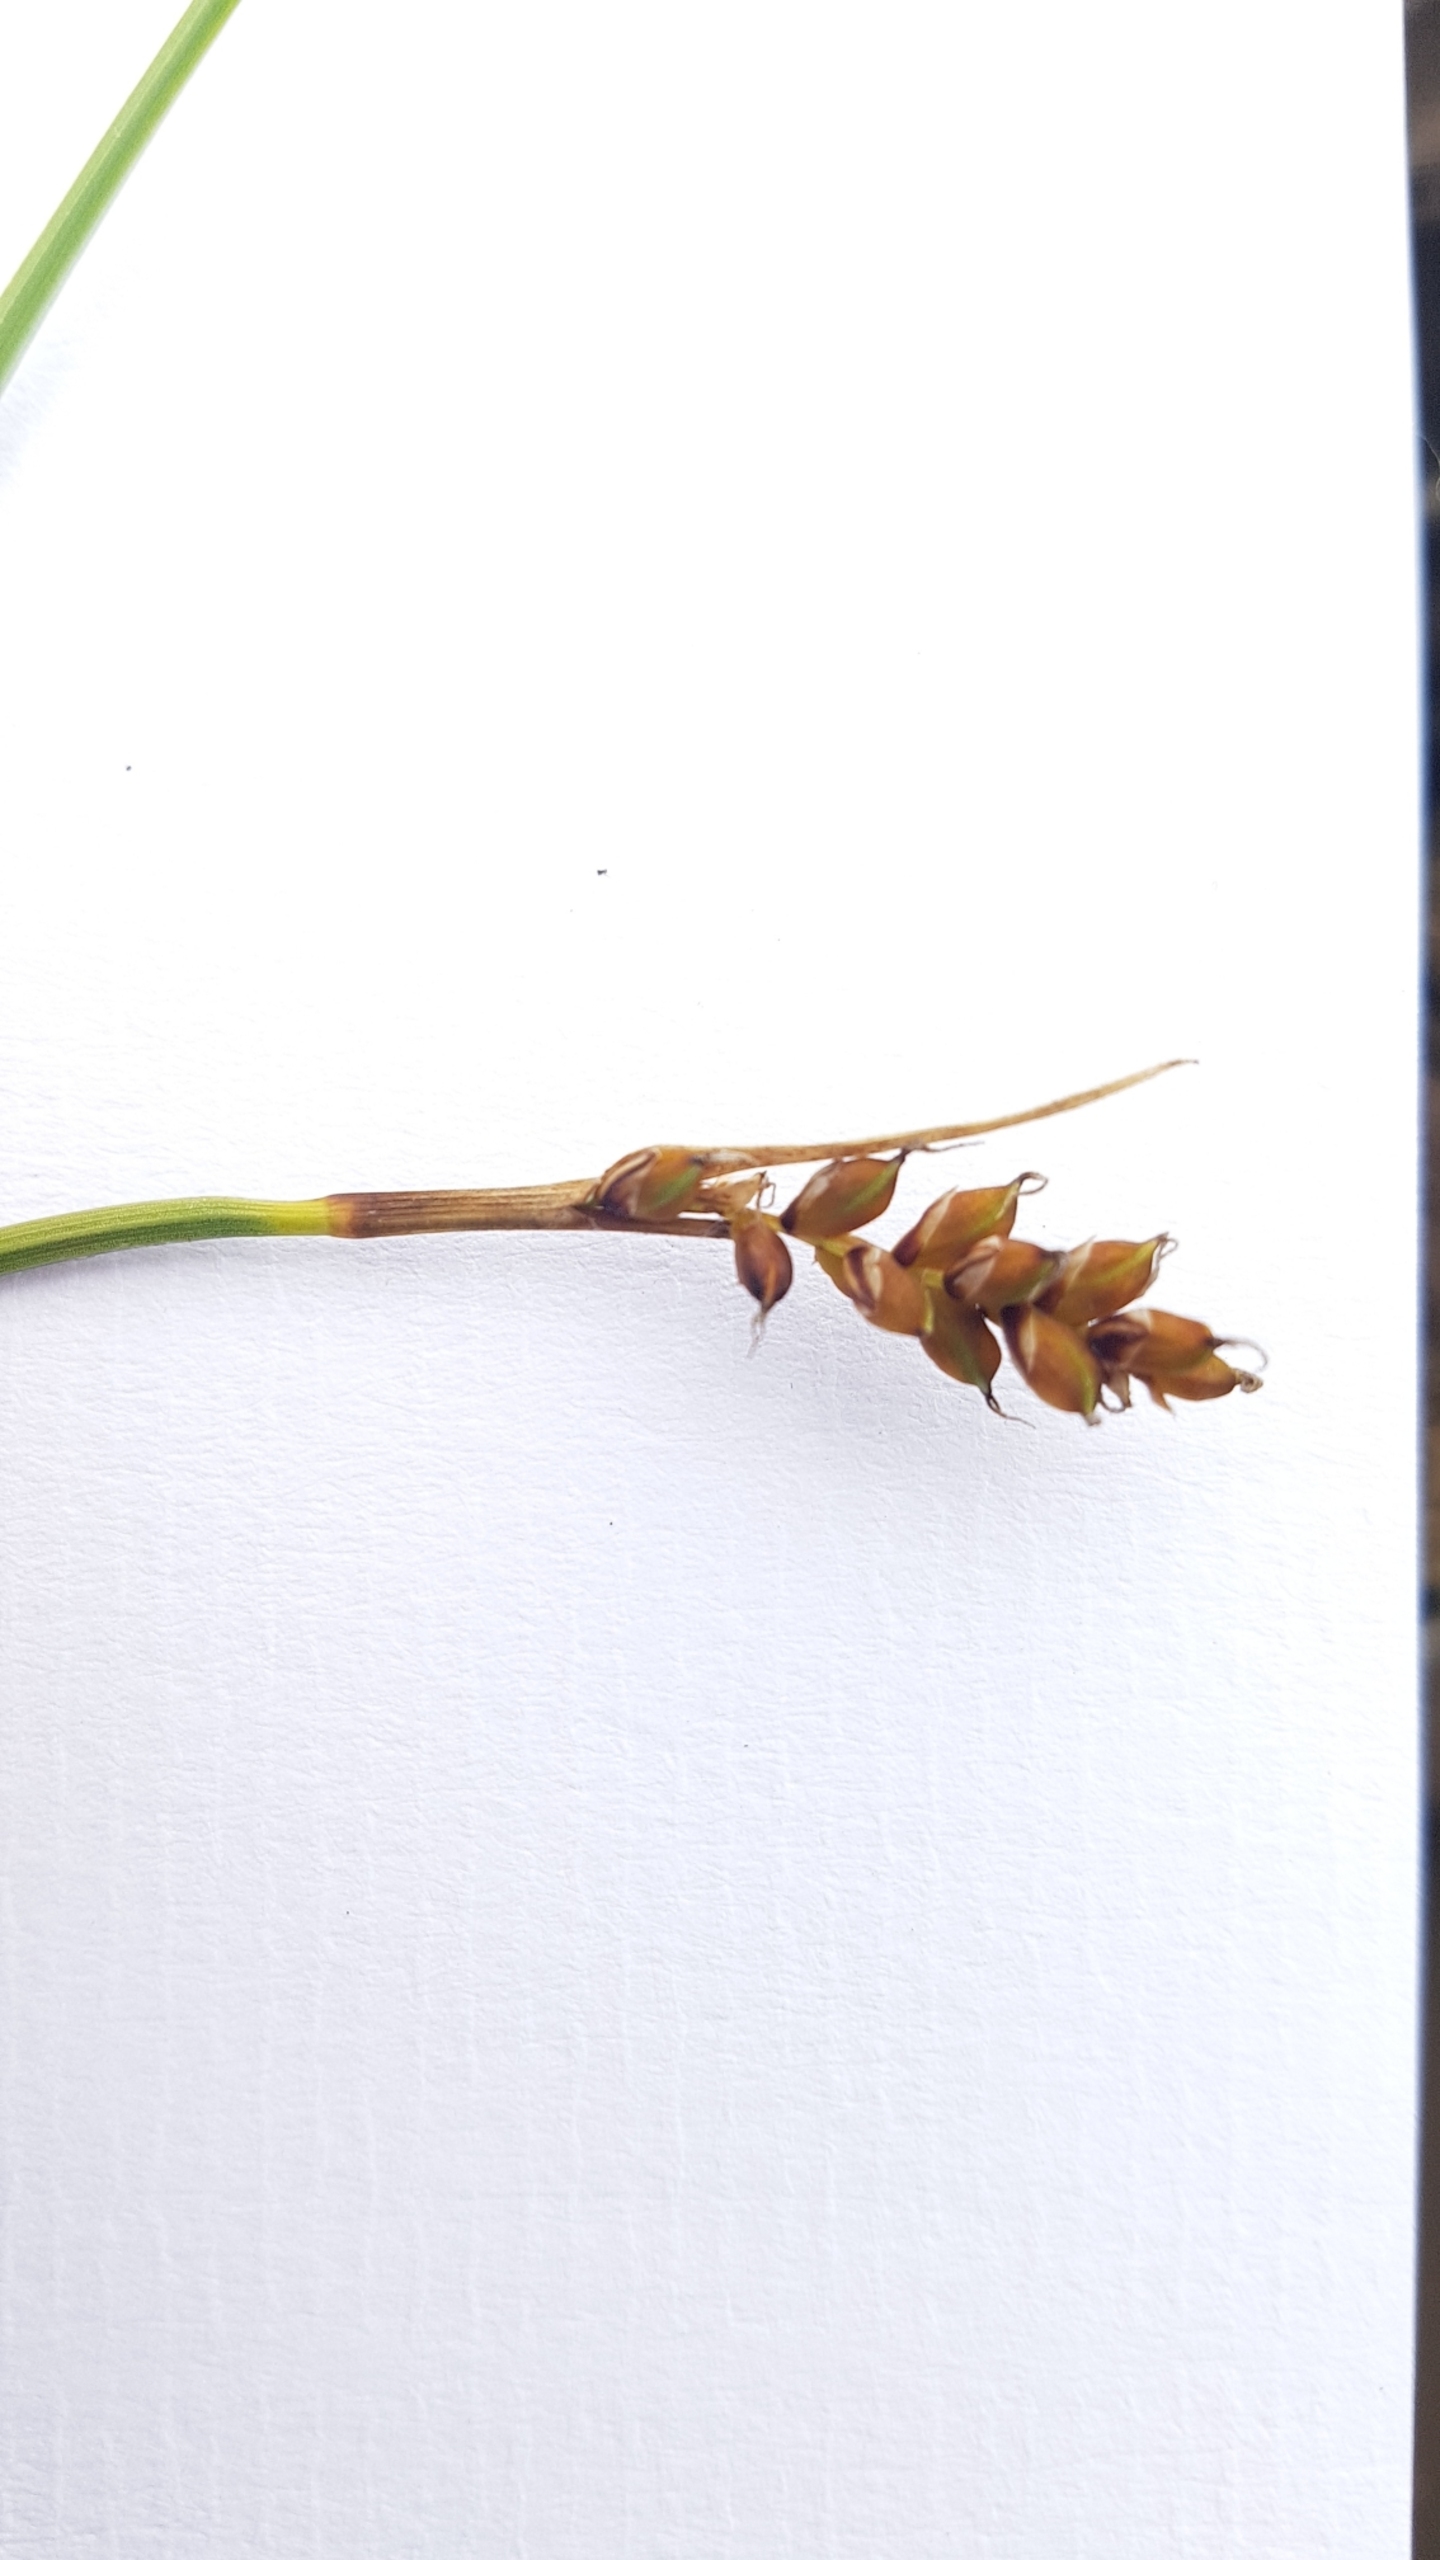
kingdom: Plantae
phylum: Tracheophyta
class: Liliopsida
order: Poales
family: Cyperaceae
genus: Carex
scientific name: Carex panicea
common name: Hirse-star
